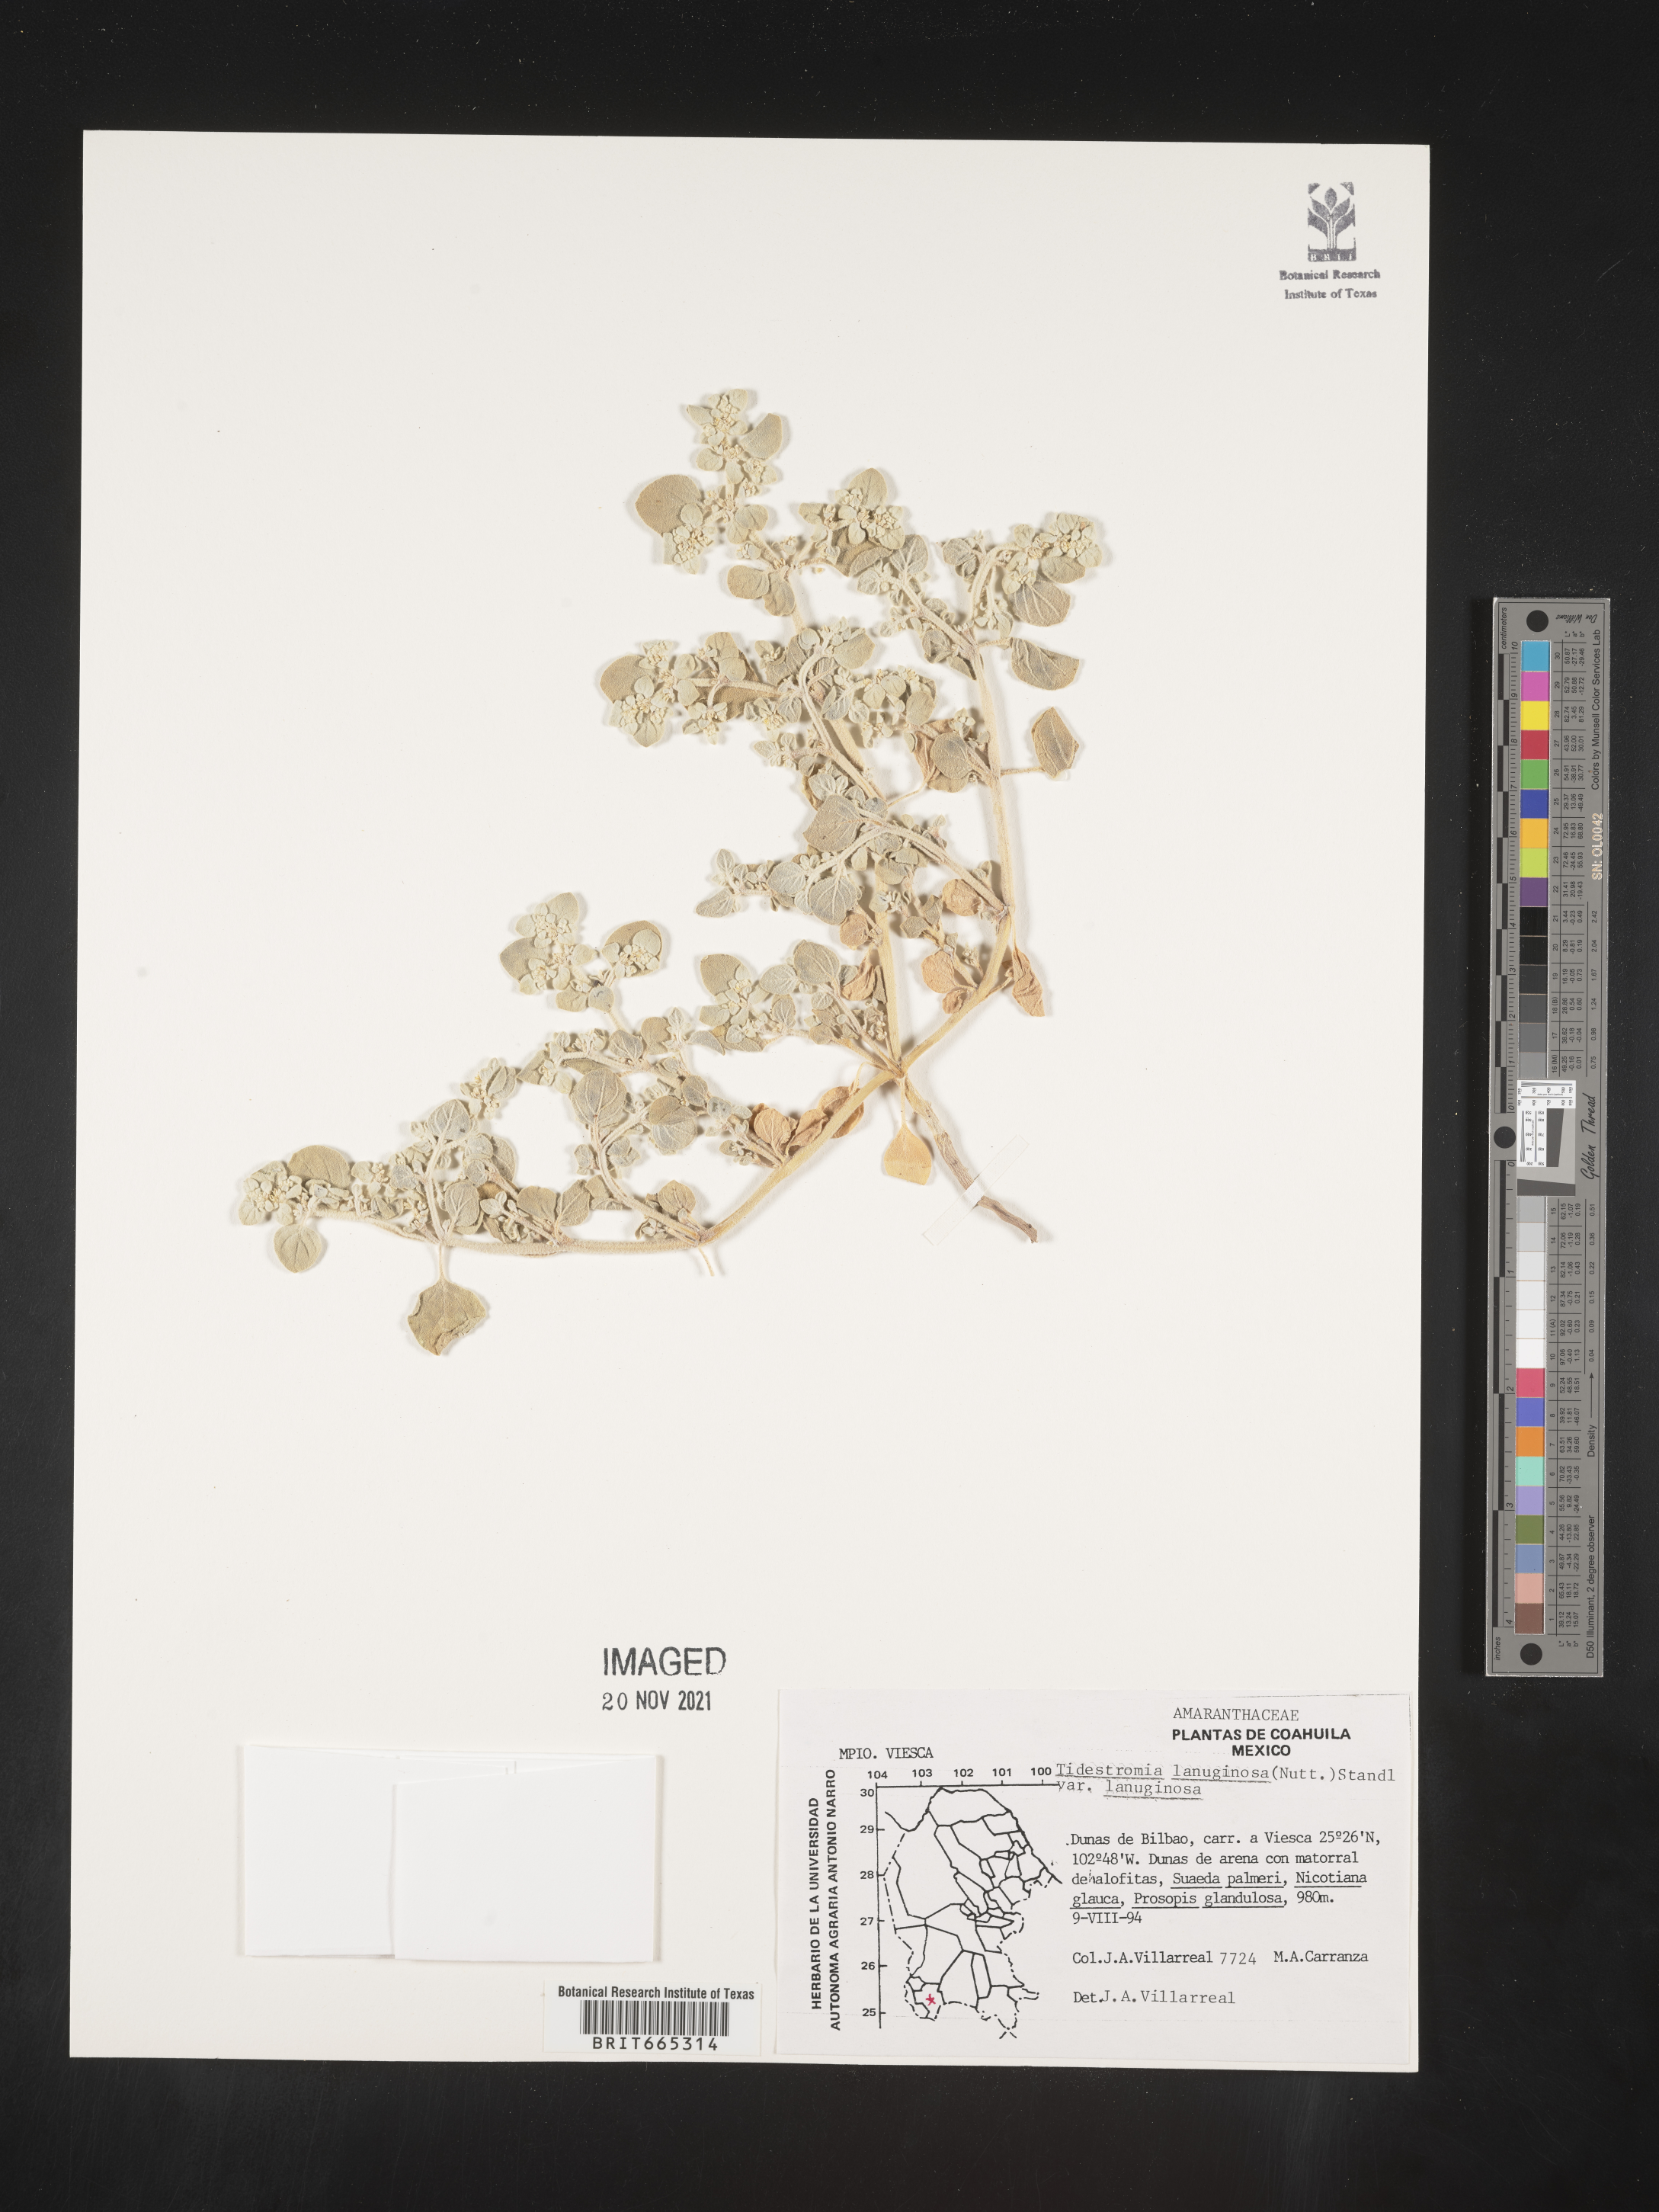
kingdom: Plantae
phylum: Tracheophyta
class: Magnoliopsida
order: Caryophyllales
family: Amaranthaceae
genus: Tidestromia
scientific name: Tidestromia
